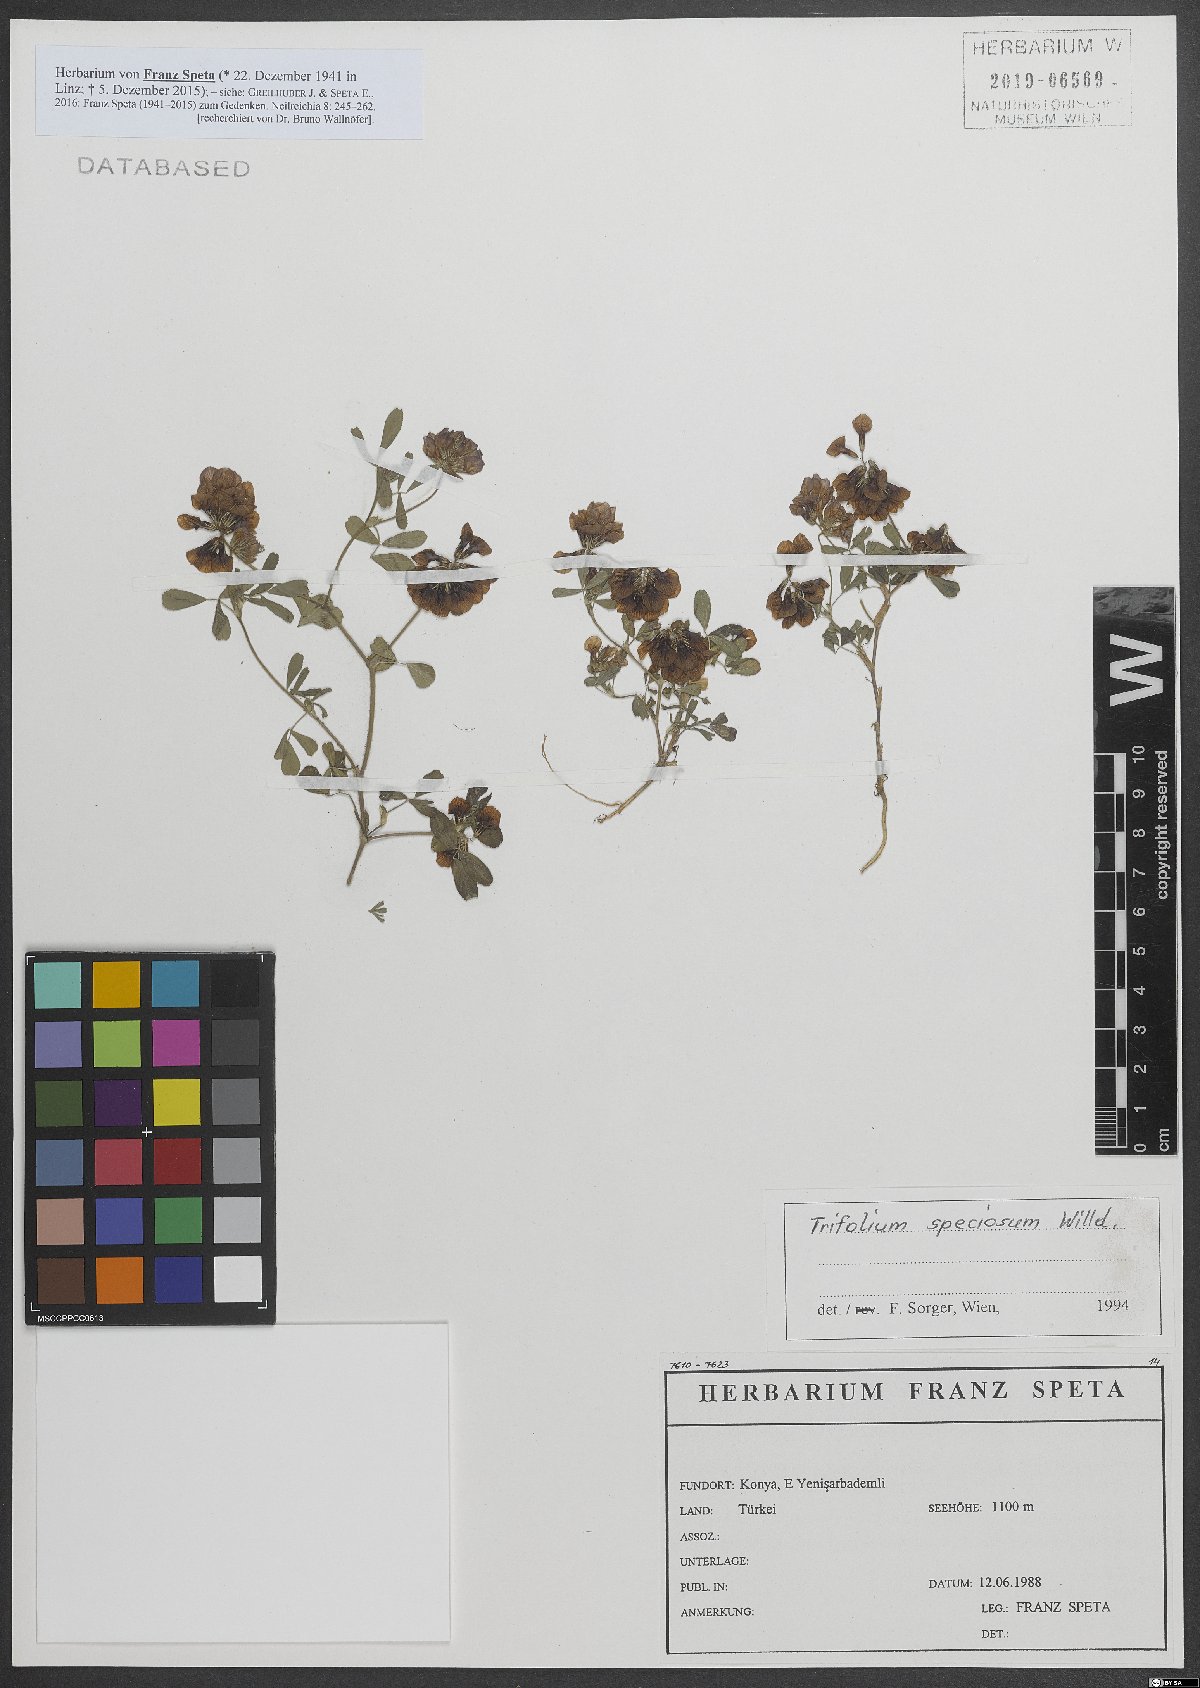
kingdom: Plantae
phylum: Tracheophyta
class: Magnoliopsida
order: Fabales
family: Fabaceae
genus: Trifolium
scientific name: Trifolium grandiflorum
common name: Large-flower hop clover
